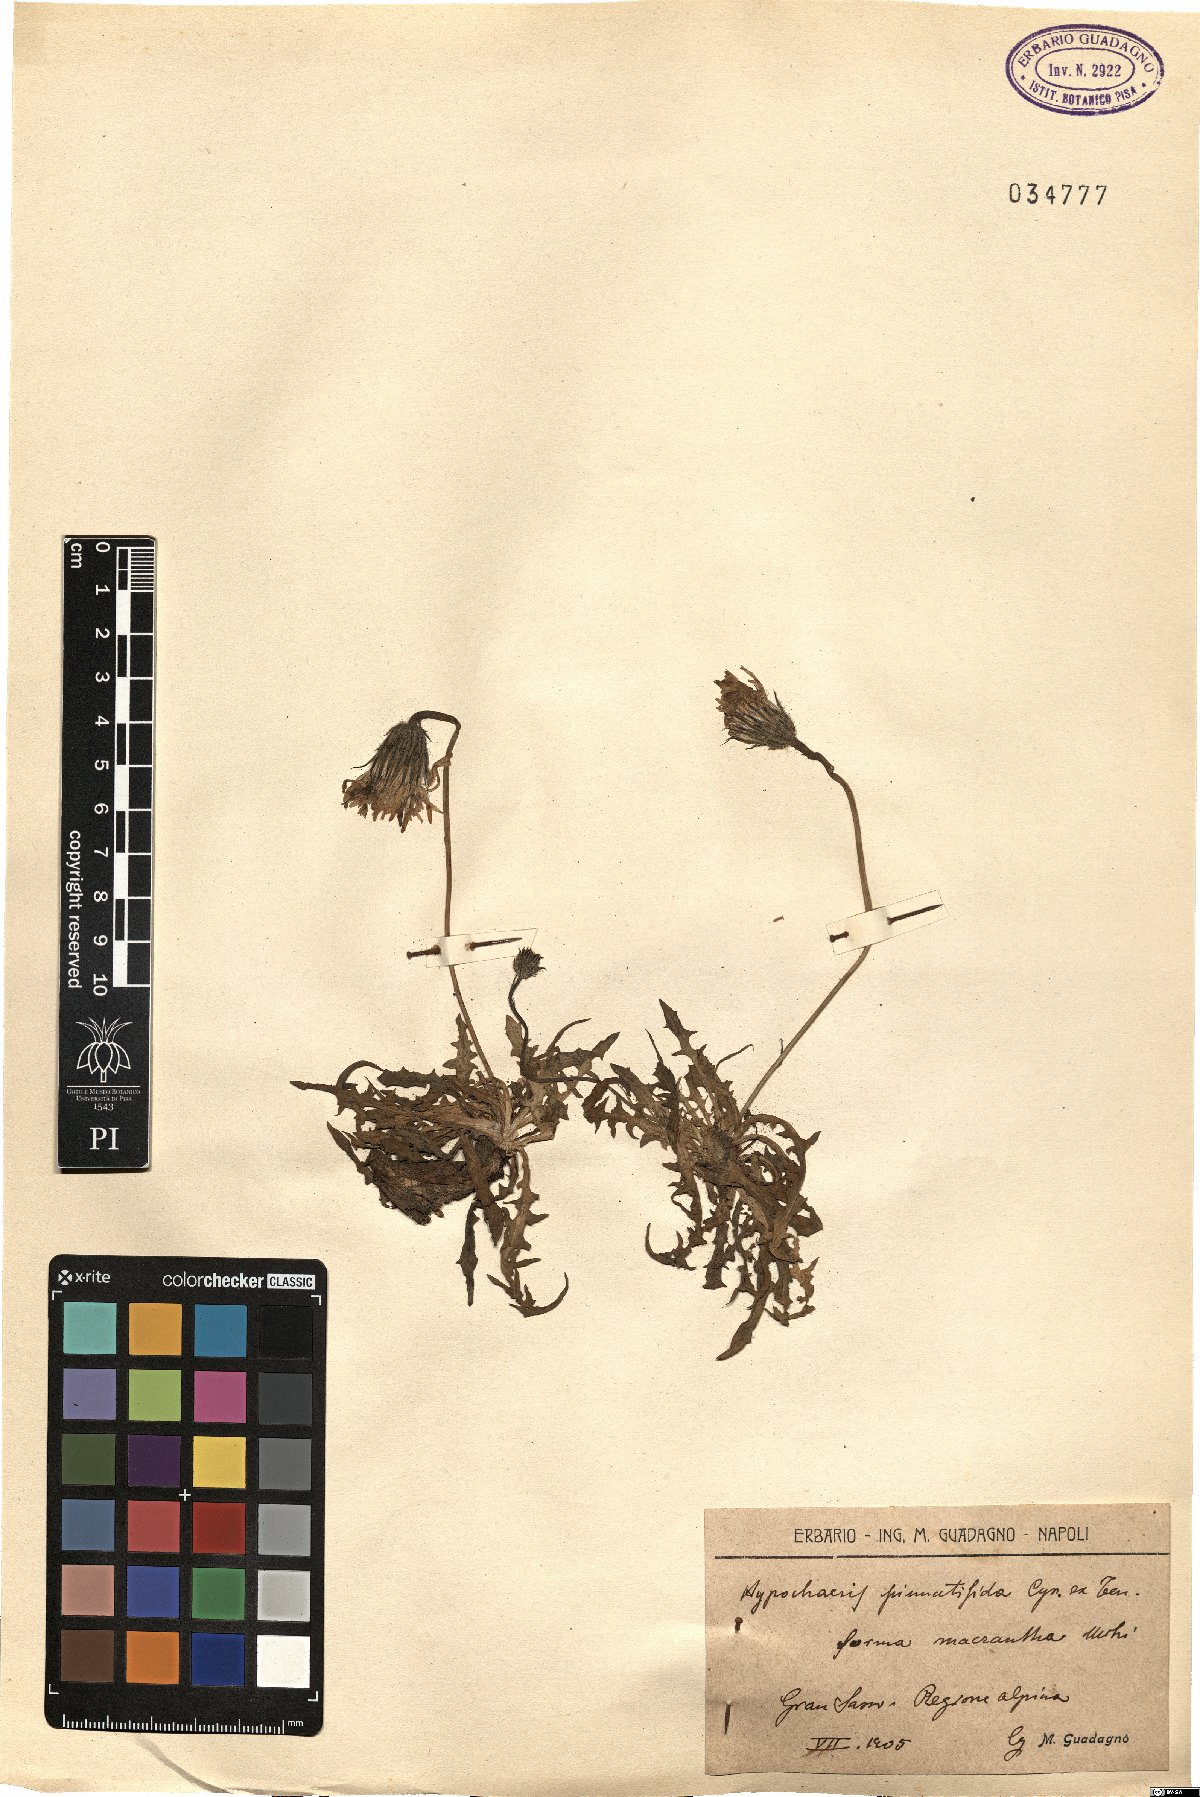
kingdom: Plantae
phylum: Tracheophyta
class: Magnoliopsida
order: Asterales
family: Asteraceae
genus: Hypochaeris
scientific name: Hypochaeris
